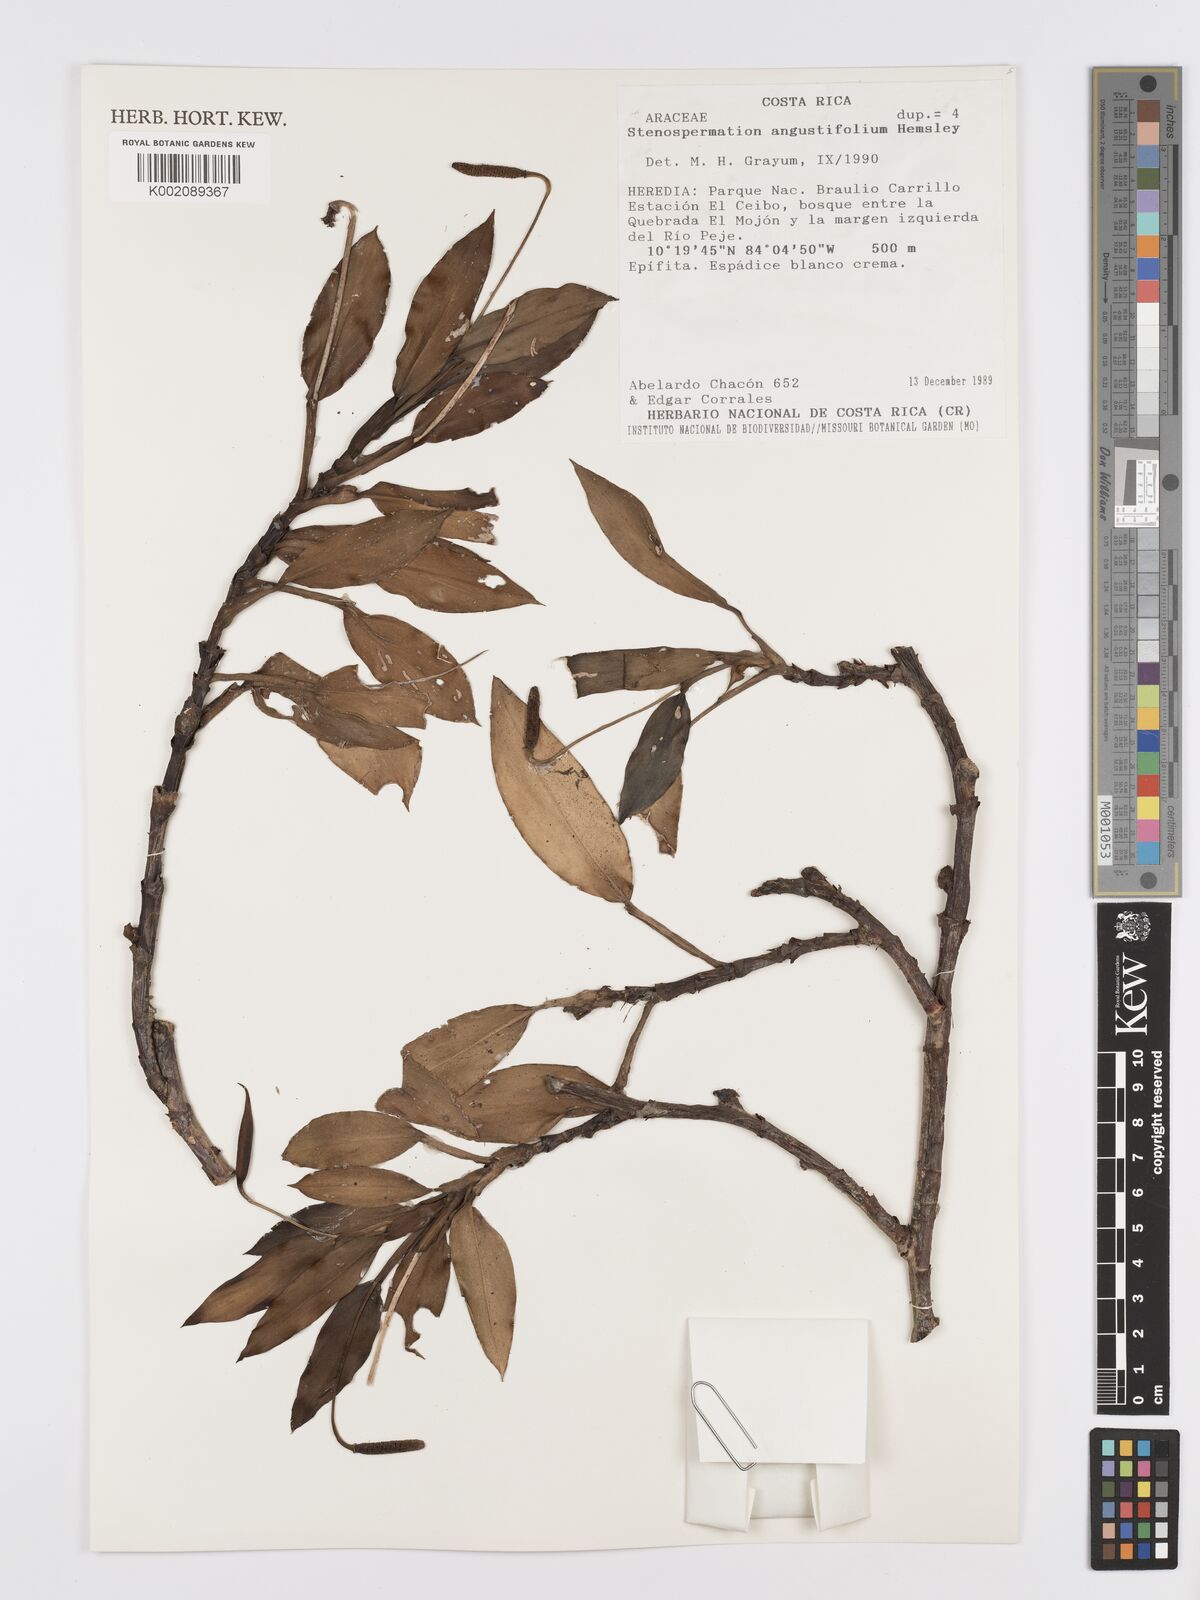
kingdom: Plantae
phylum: Tracheophyta
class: Liliopsida
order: Alismatales
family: Araceae
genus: Stenospermation
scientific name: Stenospermation angustifolium
